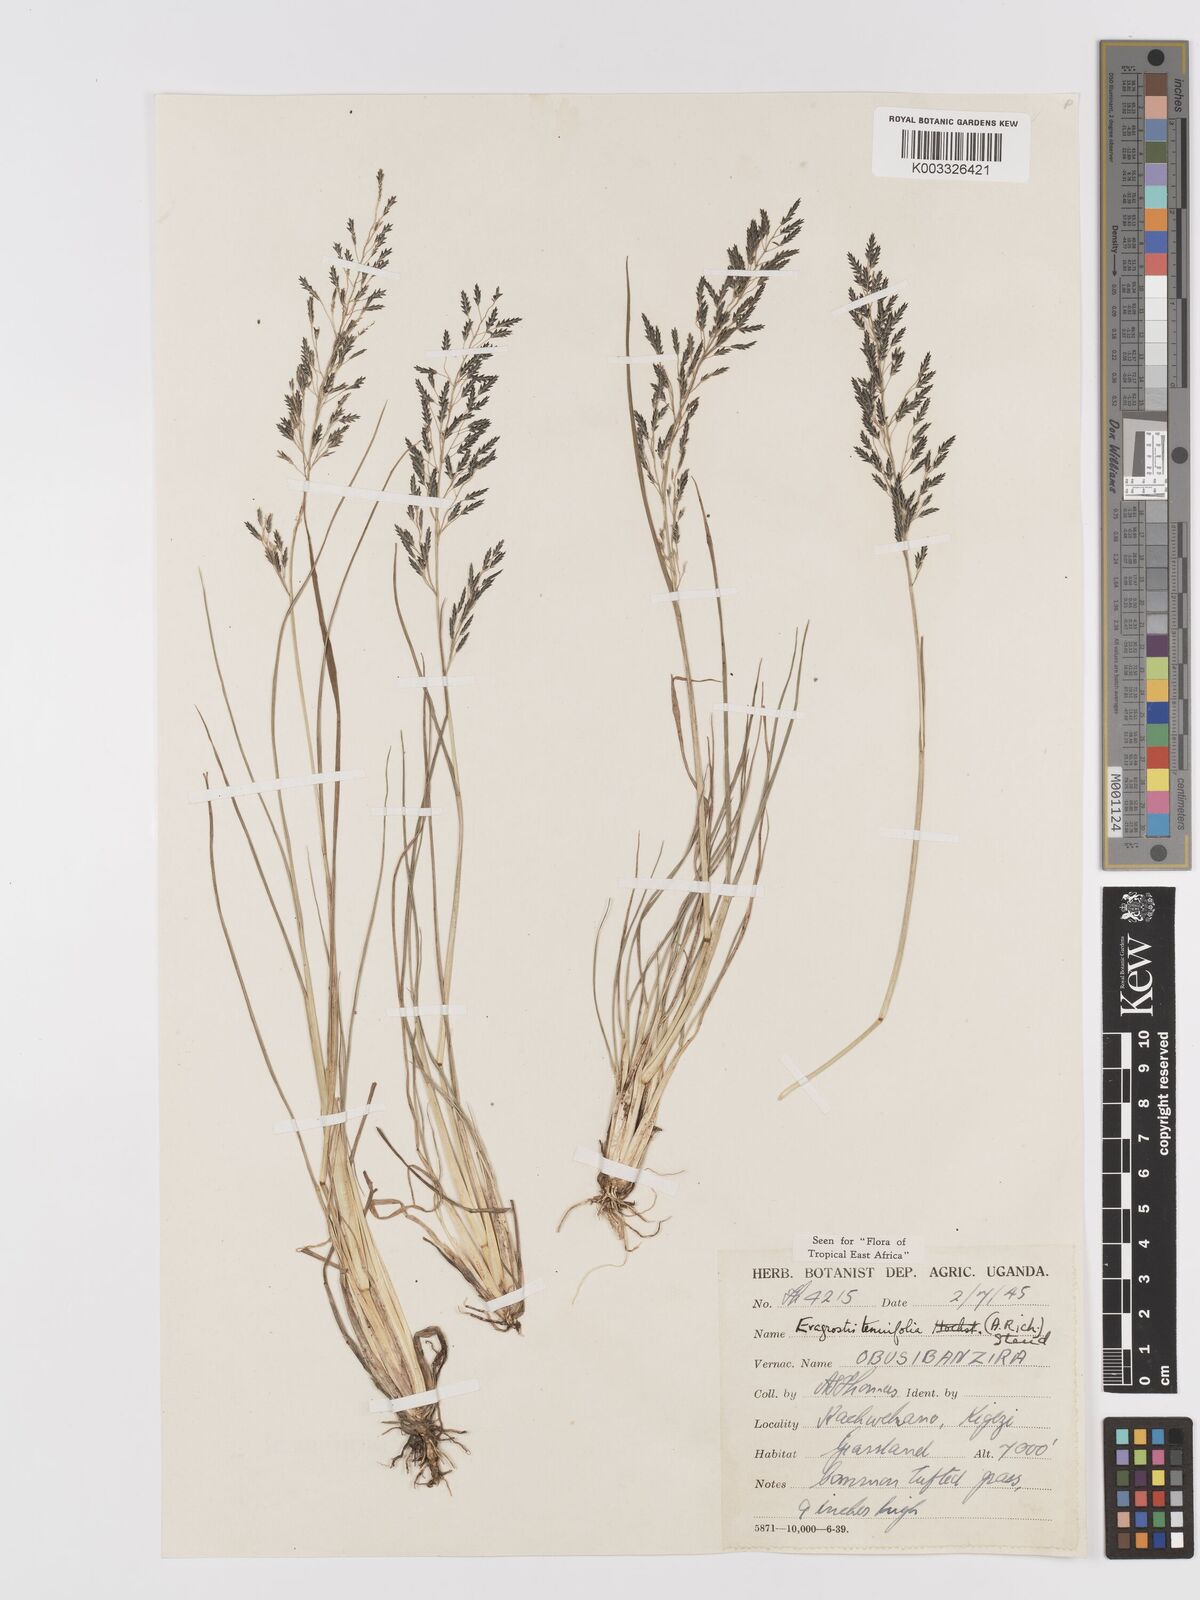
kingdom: Plantae
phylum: Tracheophyta
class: Liliopsida
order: Poales
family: Poaceae
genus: Eragrostis
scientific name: Eragrostis tenuifolia
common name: Elastic grass
